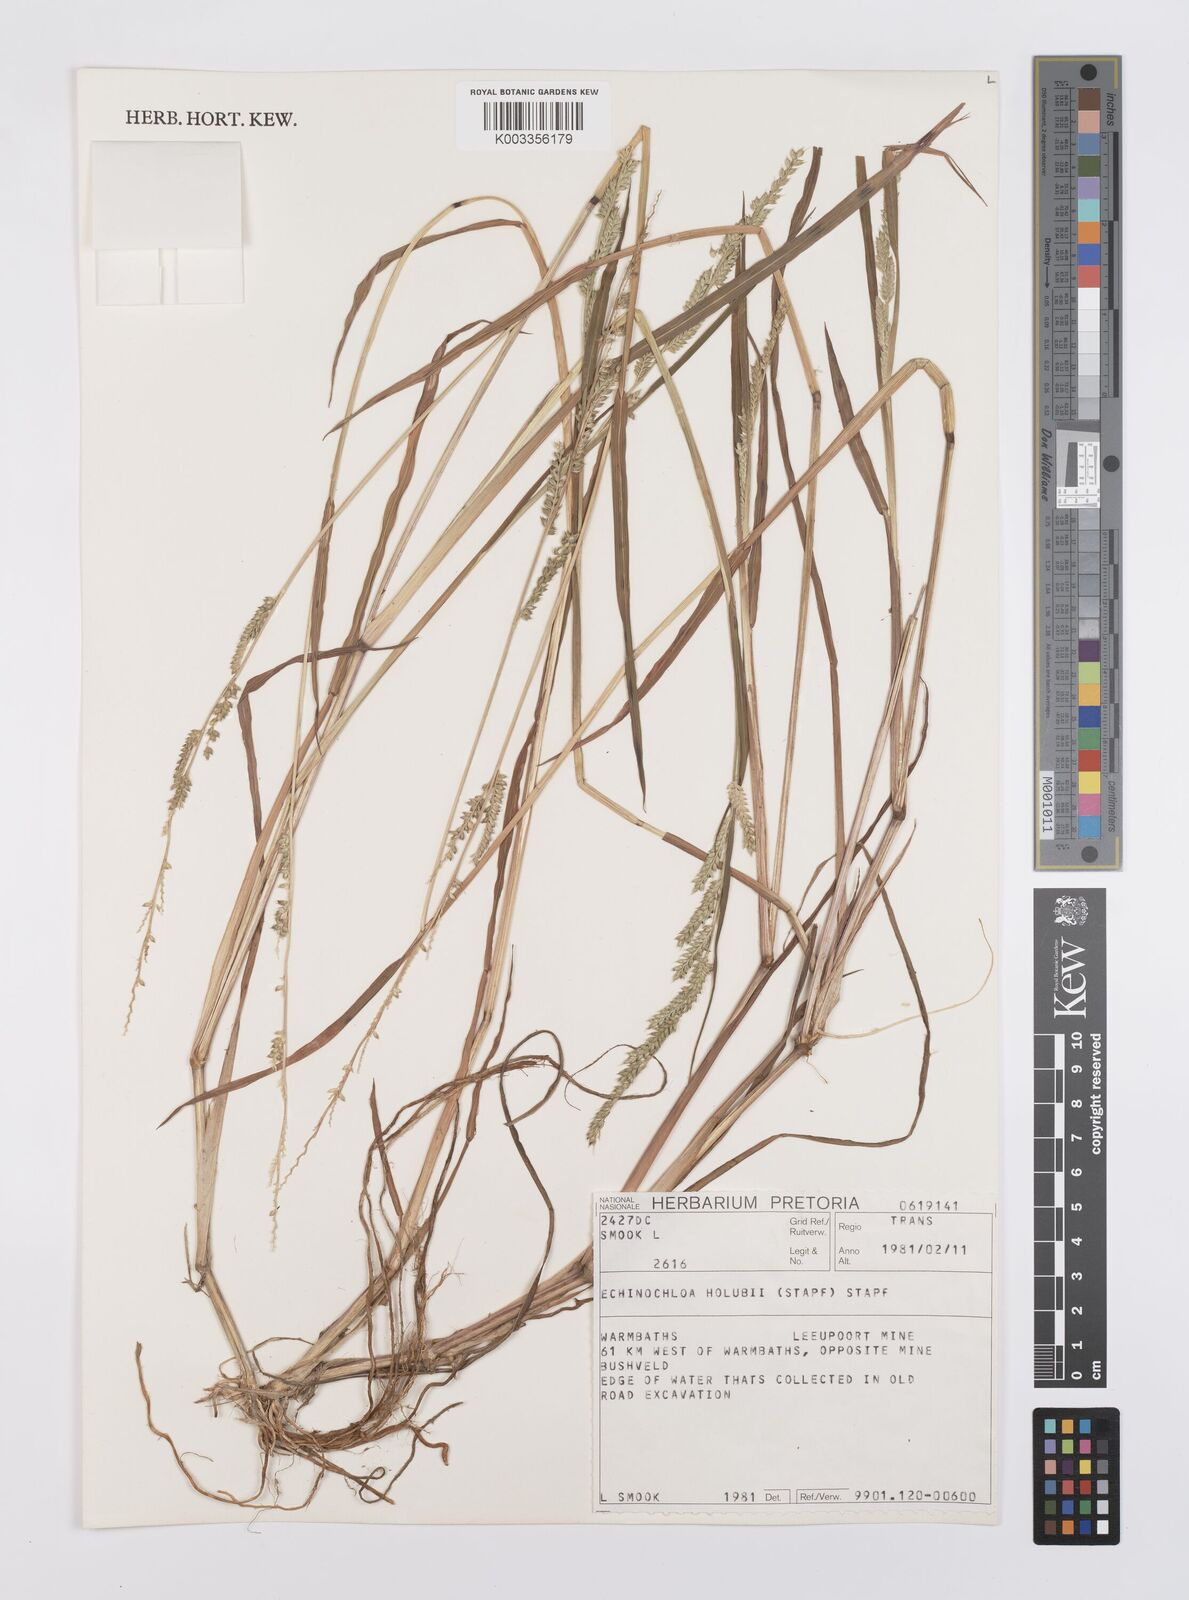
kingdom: Plantae
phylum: Tracheophyta
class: Liliopsida
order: Poales
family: Poaceae
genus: Echinochloa
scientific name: Echinochloa ugandensis
